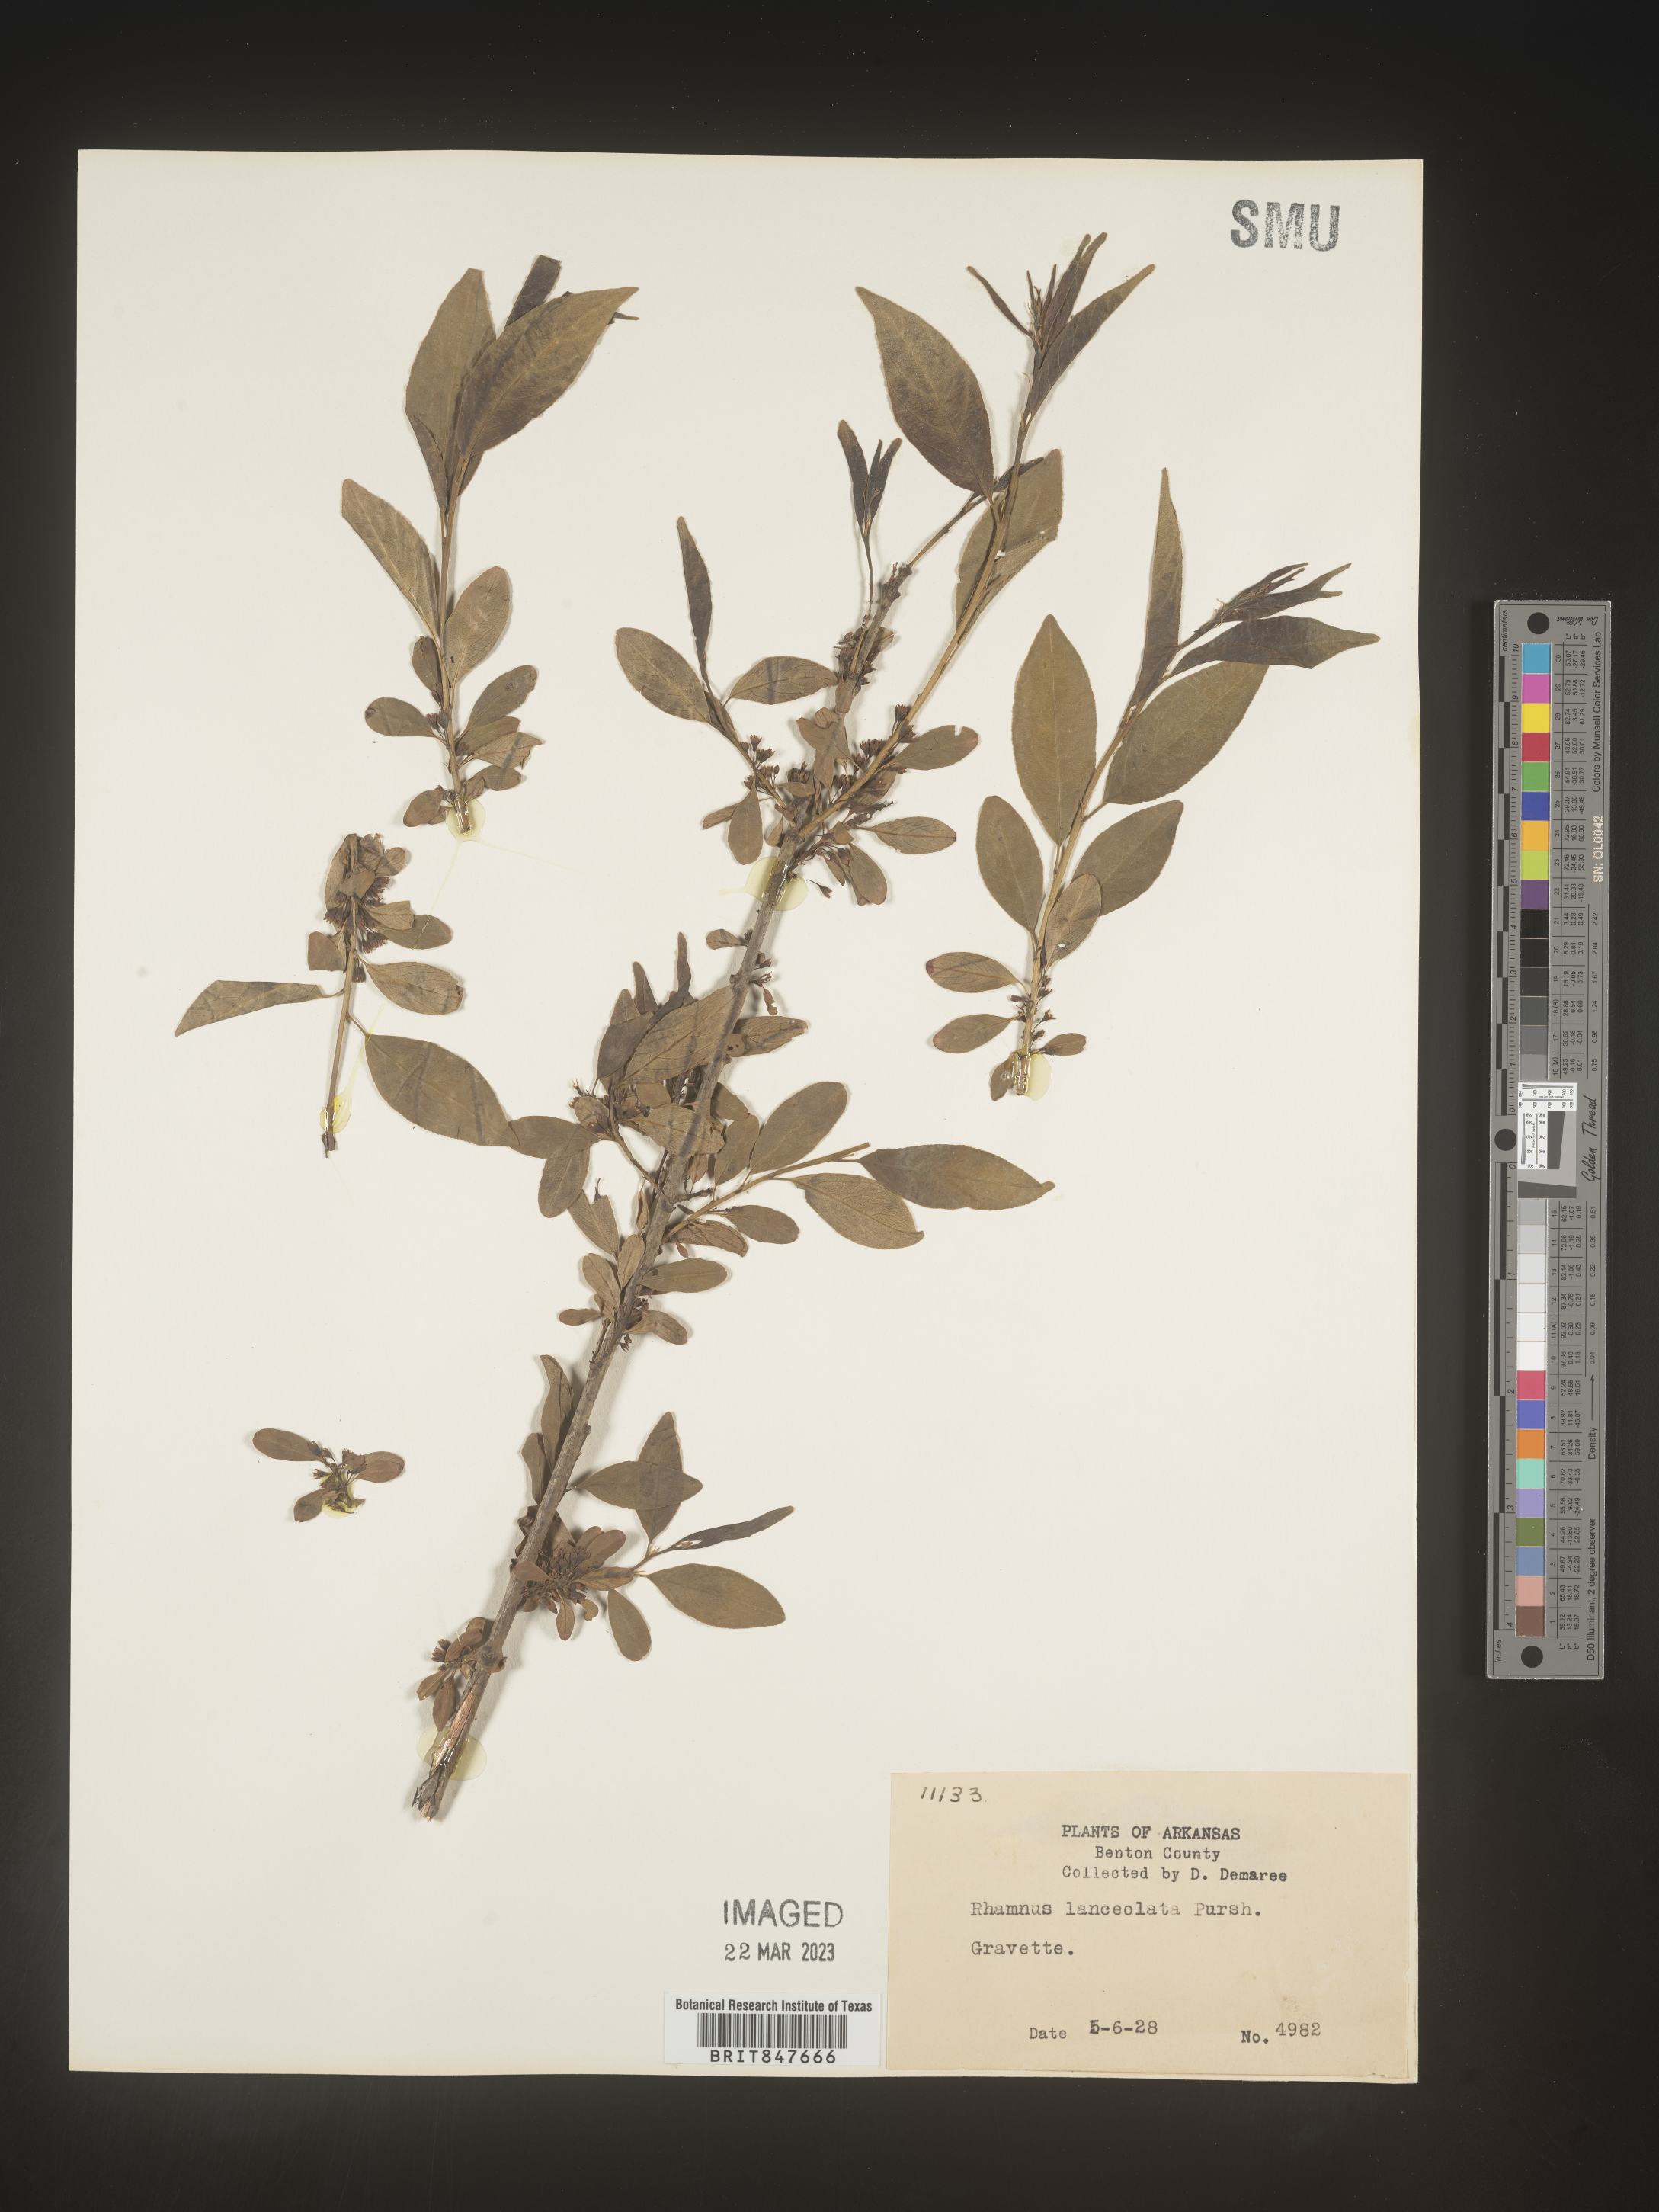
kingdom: Plantae
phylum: Tracheophyta
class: Magnoliopsida
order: Rosales
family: Rhamnaceae
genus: Endotropis
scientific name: Endotropis lanceolata
